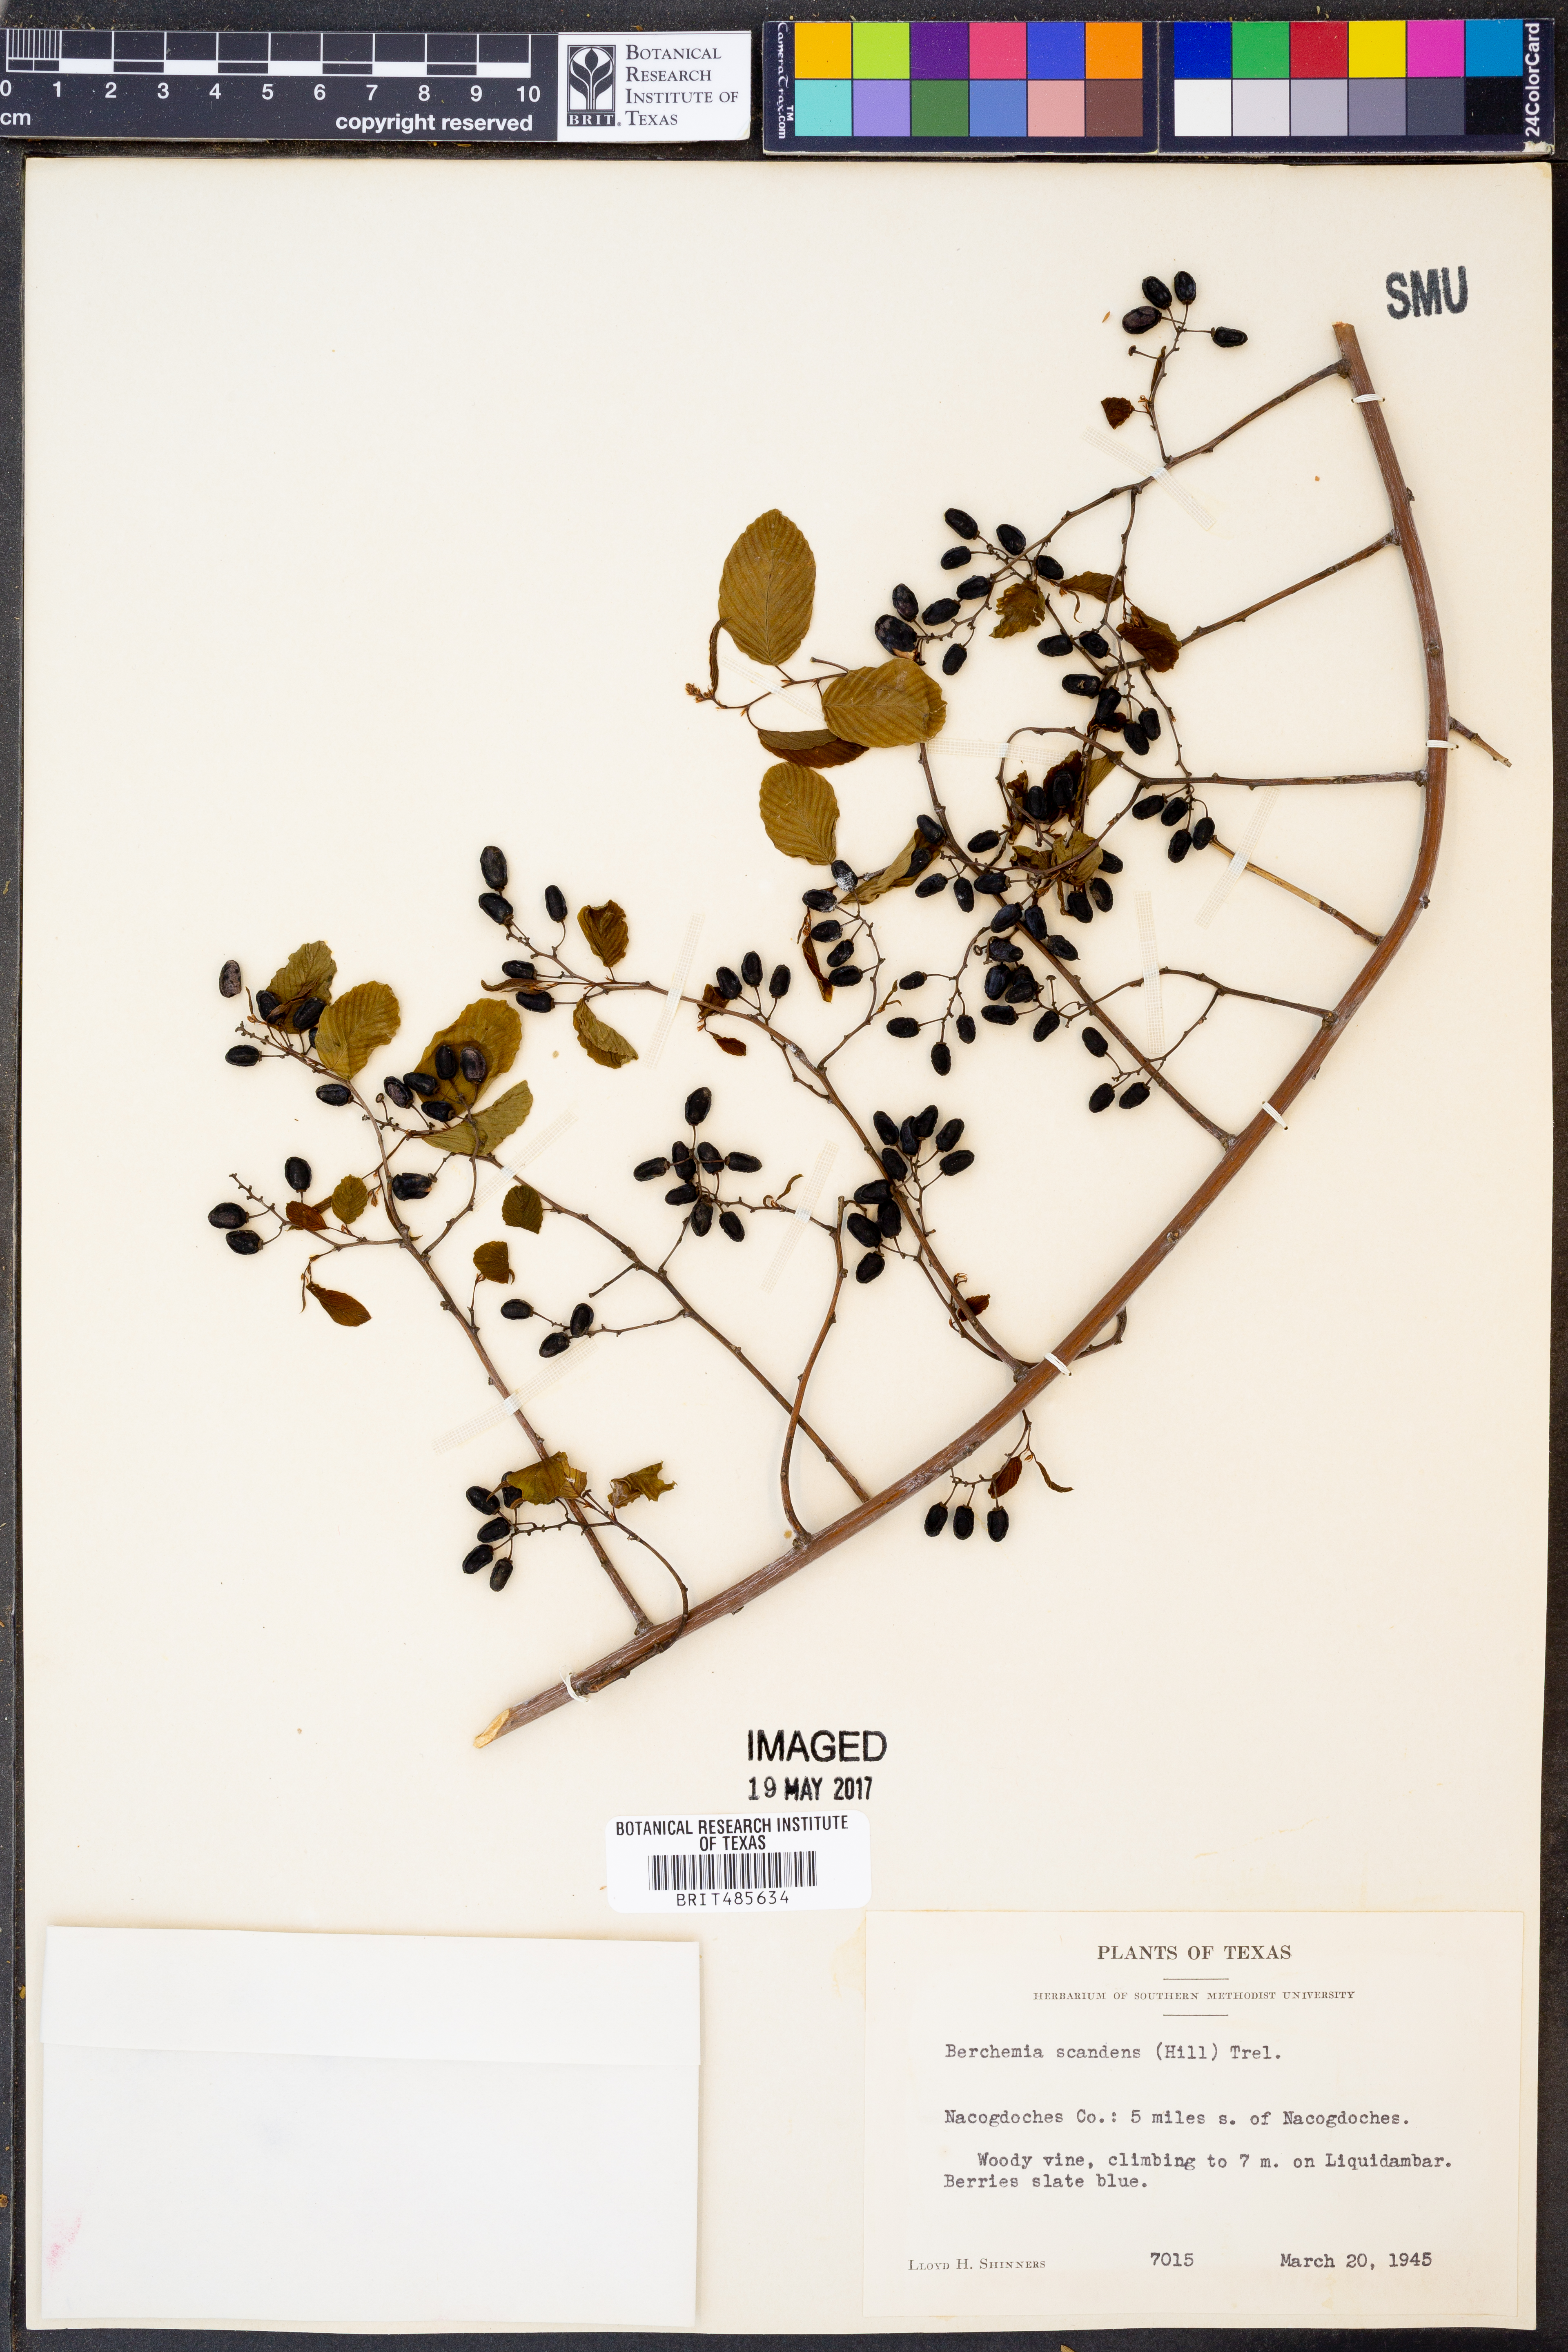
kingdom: Plantae
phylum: Tracheophyta
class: Magnoliopsida
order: Rosales
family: Rhamnaceae
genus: Berchemia
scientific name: Berchemia scandens
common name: Supplejack
